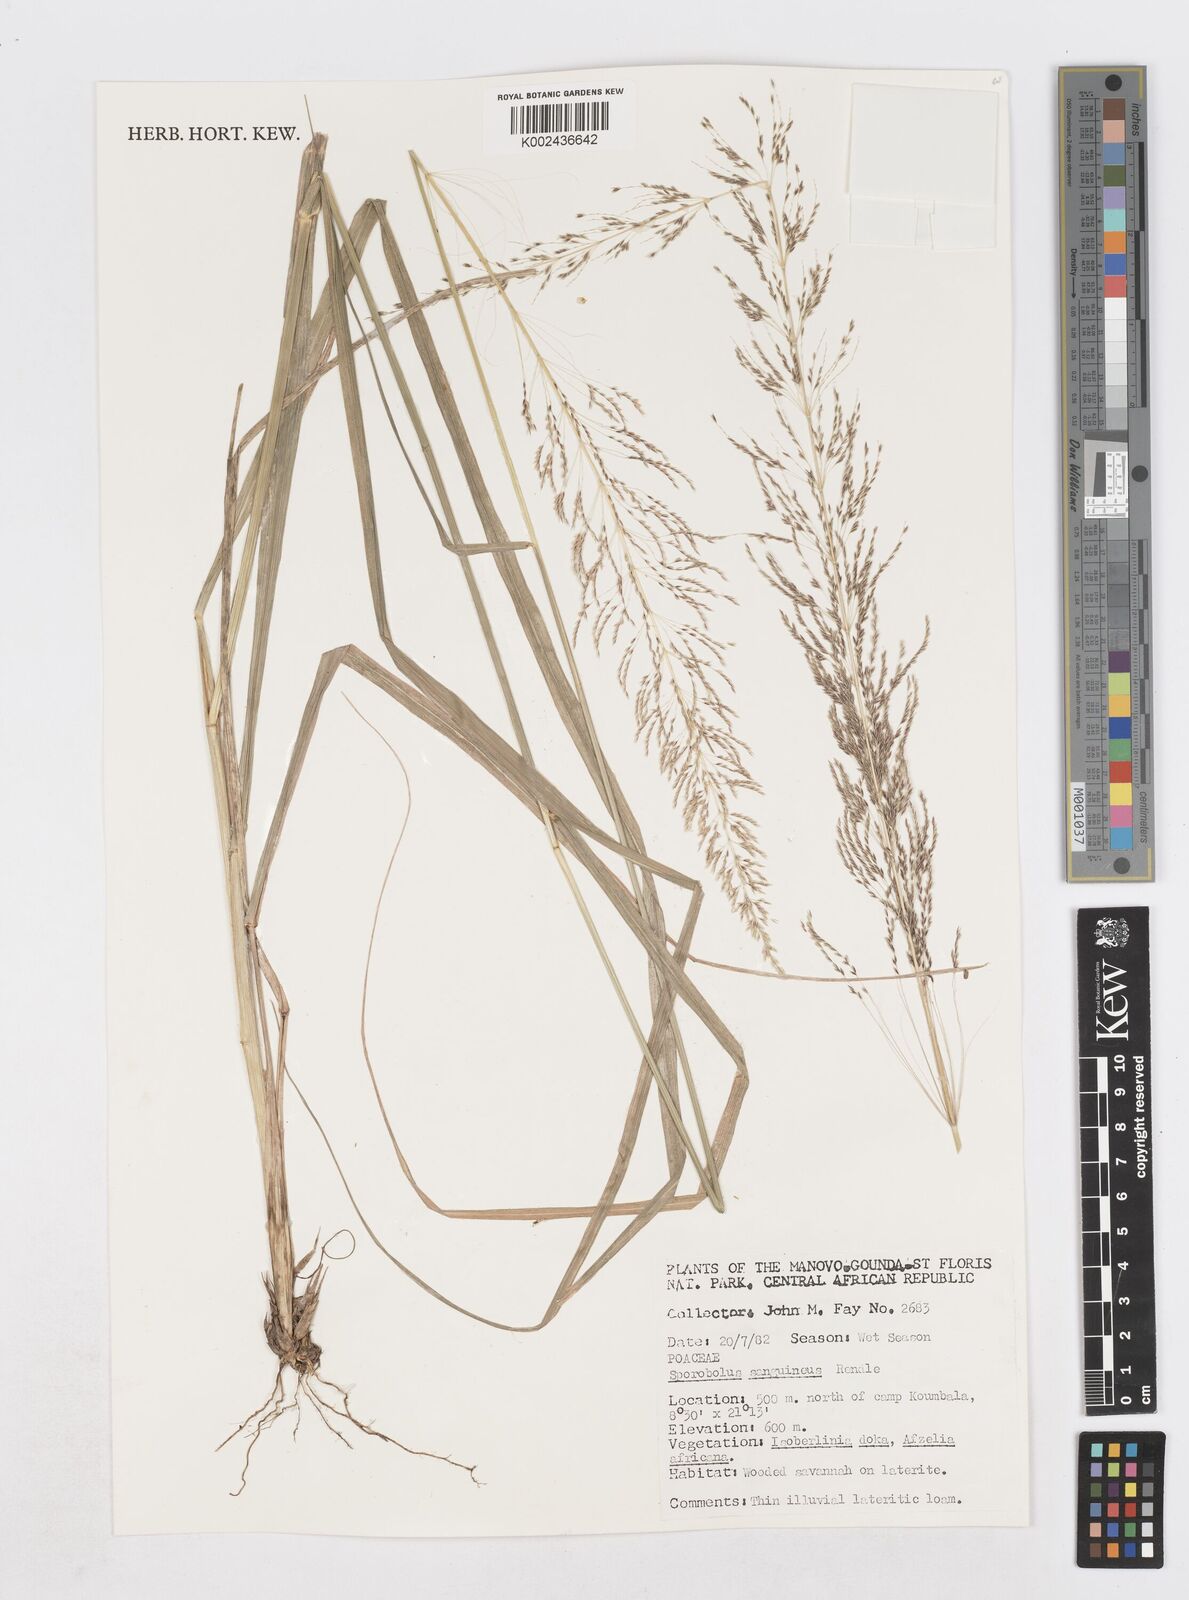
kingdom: Plantae
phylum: Tracheophyta
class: Liliopsida
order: Poales
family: Poaceae
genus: Sporobolus
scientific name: Sporobolus sanguineus
